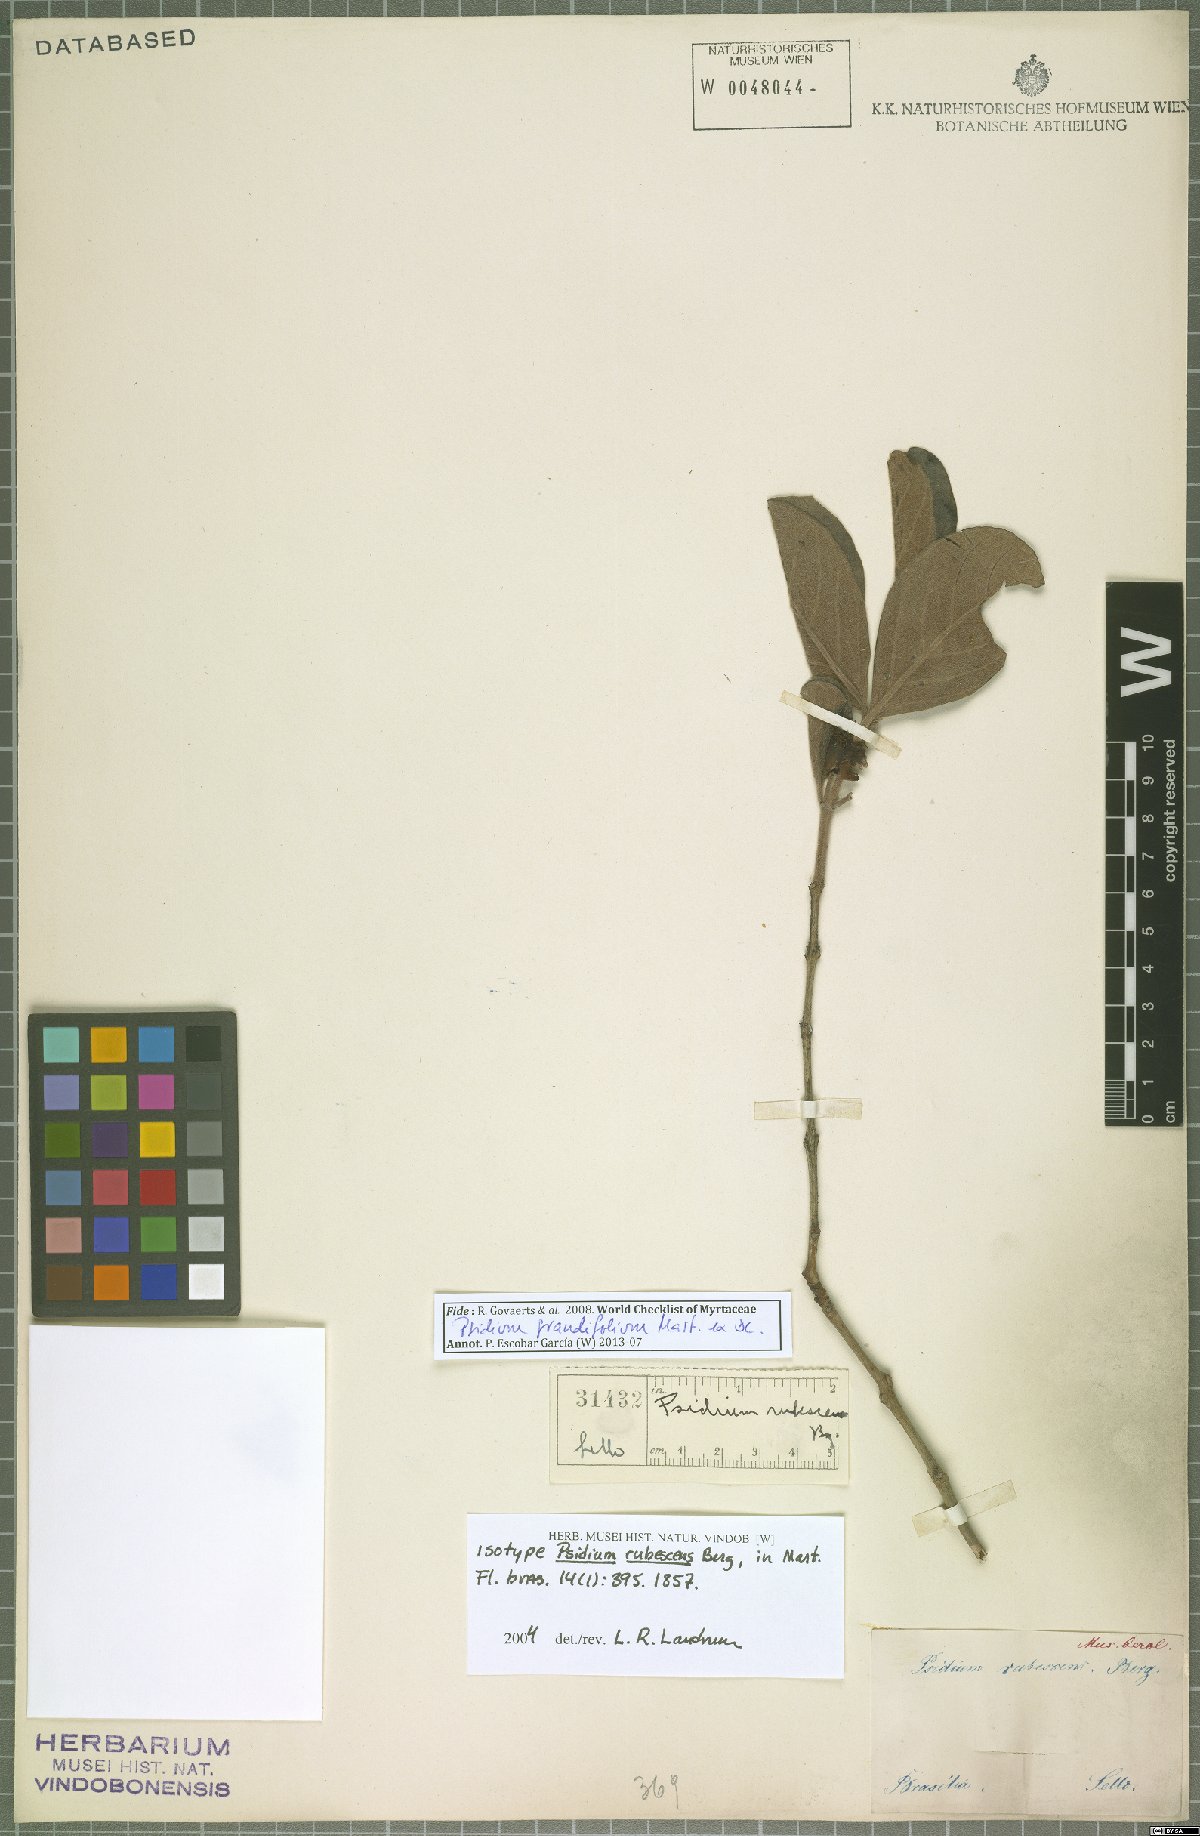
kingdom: Plantae
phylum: Tracheophyta
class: Magnoliopsida
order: Myrtales
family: Myrtaceae
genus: Psidium
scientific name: Psidium grandifolium
